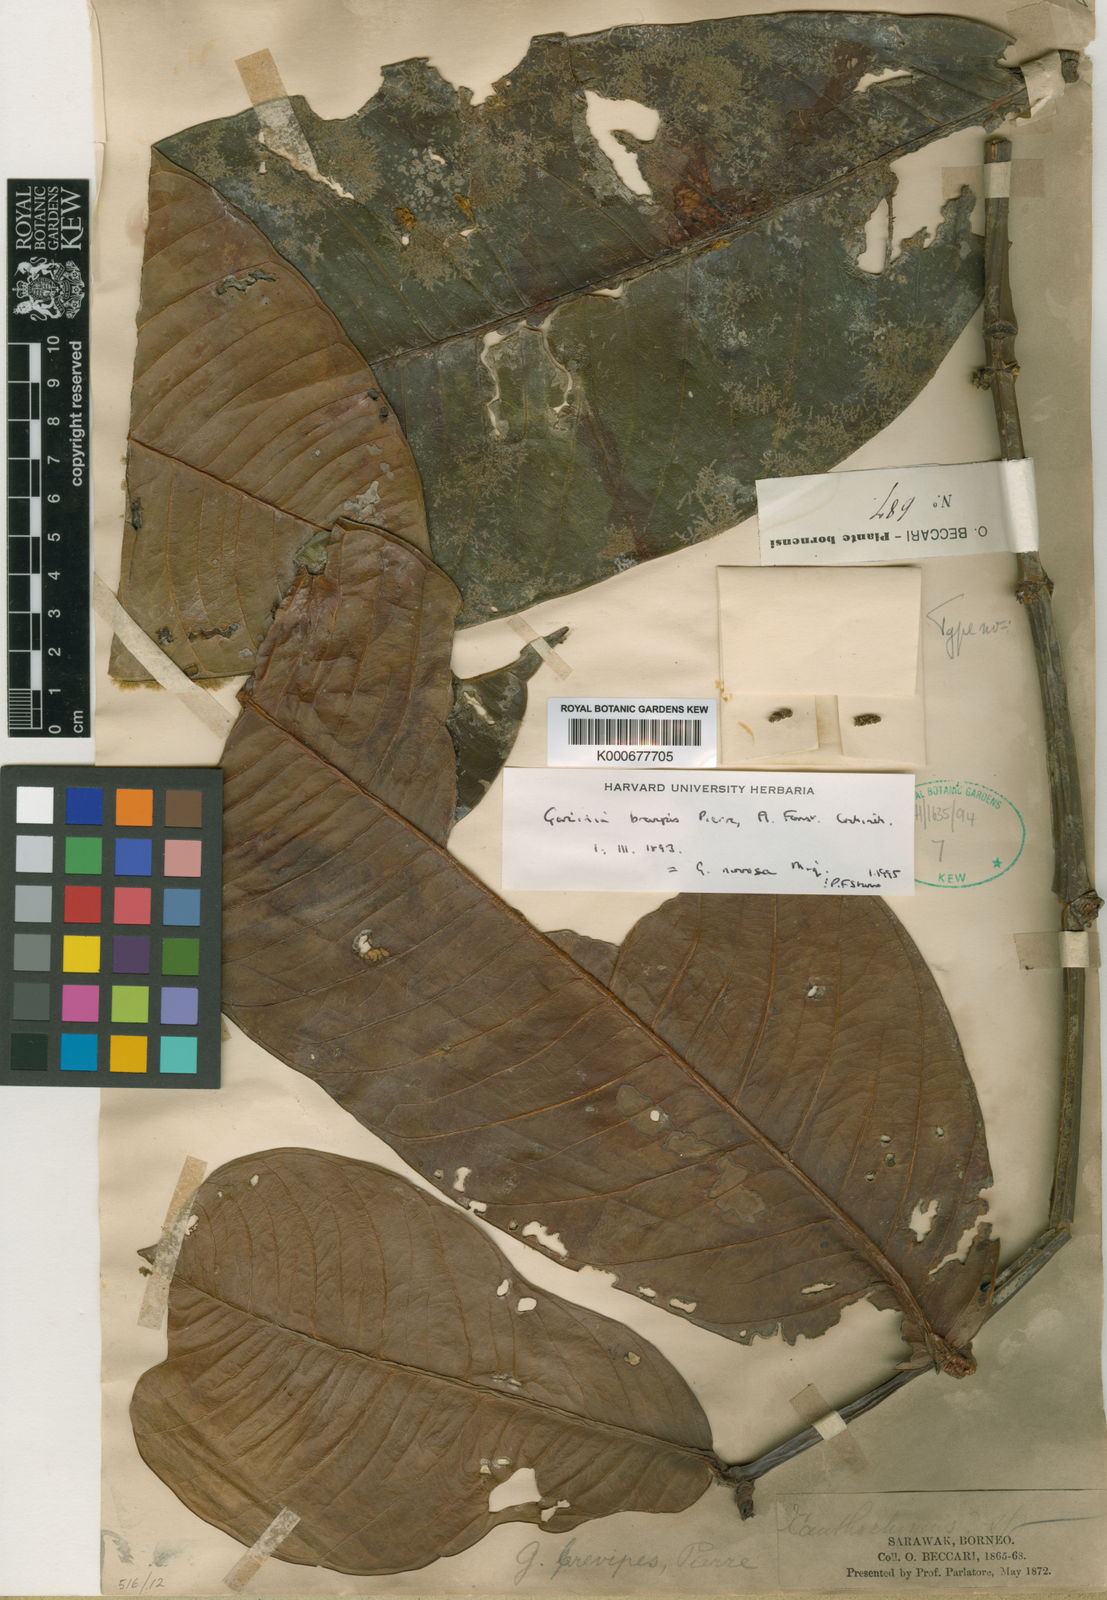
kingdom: Plantae
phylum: Tracheophyta
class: Magnoliopsida
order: Malpighiales
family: Clusiaceae
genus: Garcinia
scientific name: Garcinia brevipes
